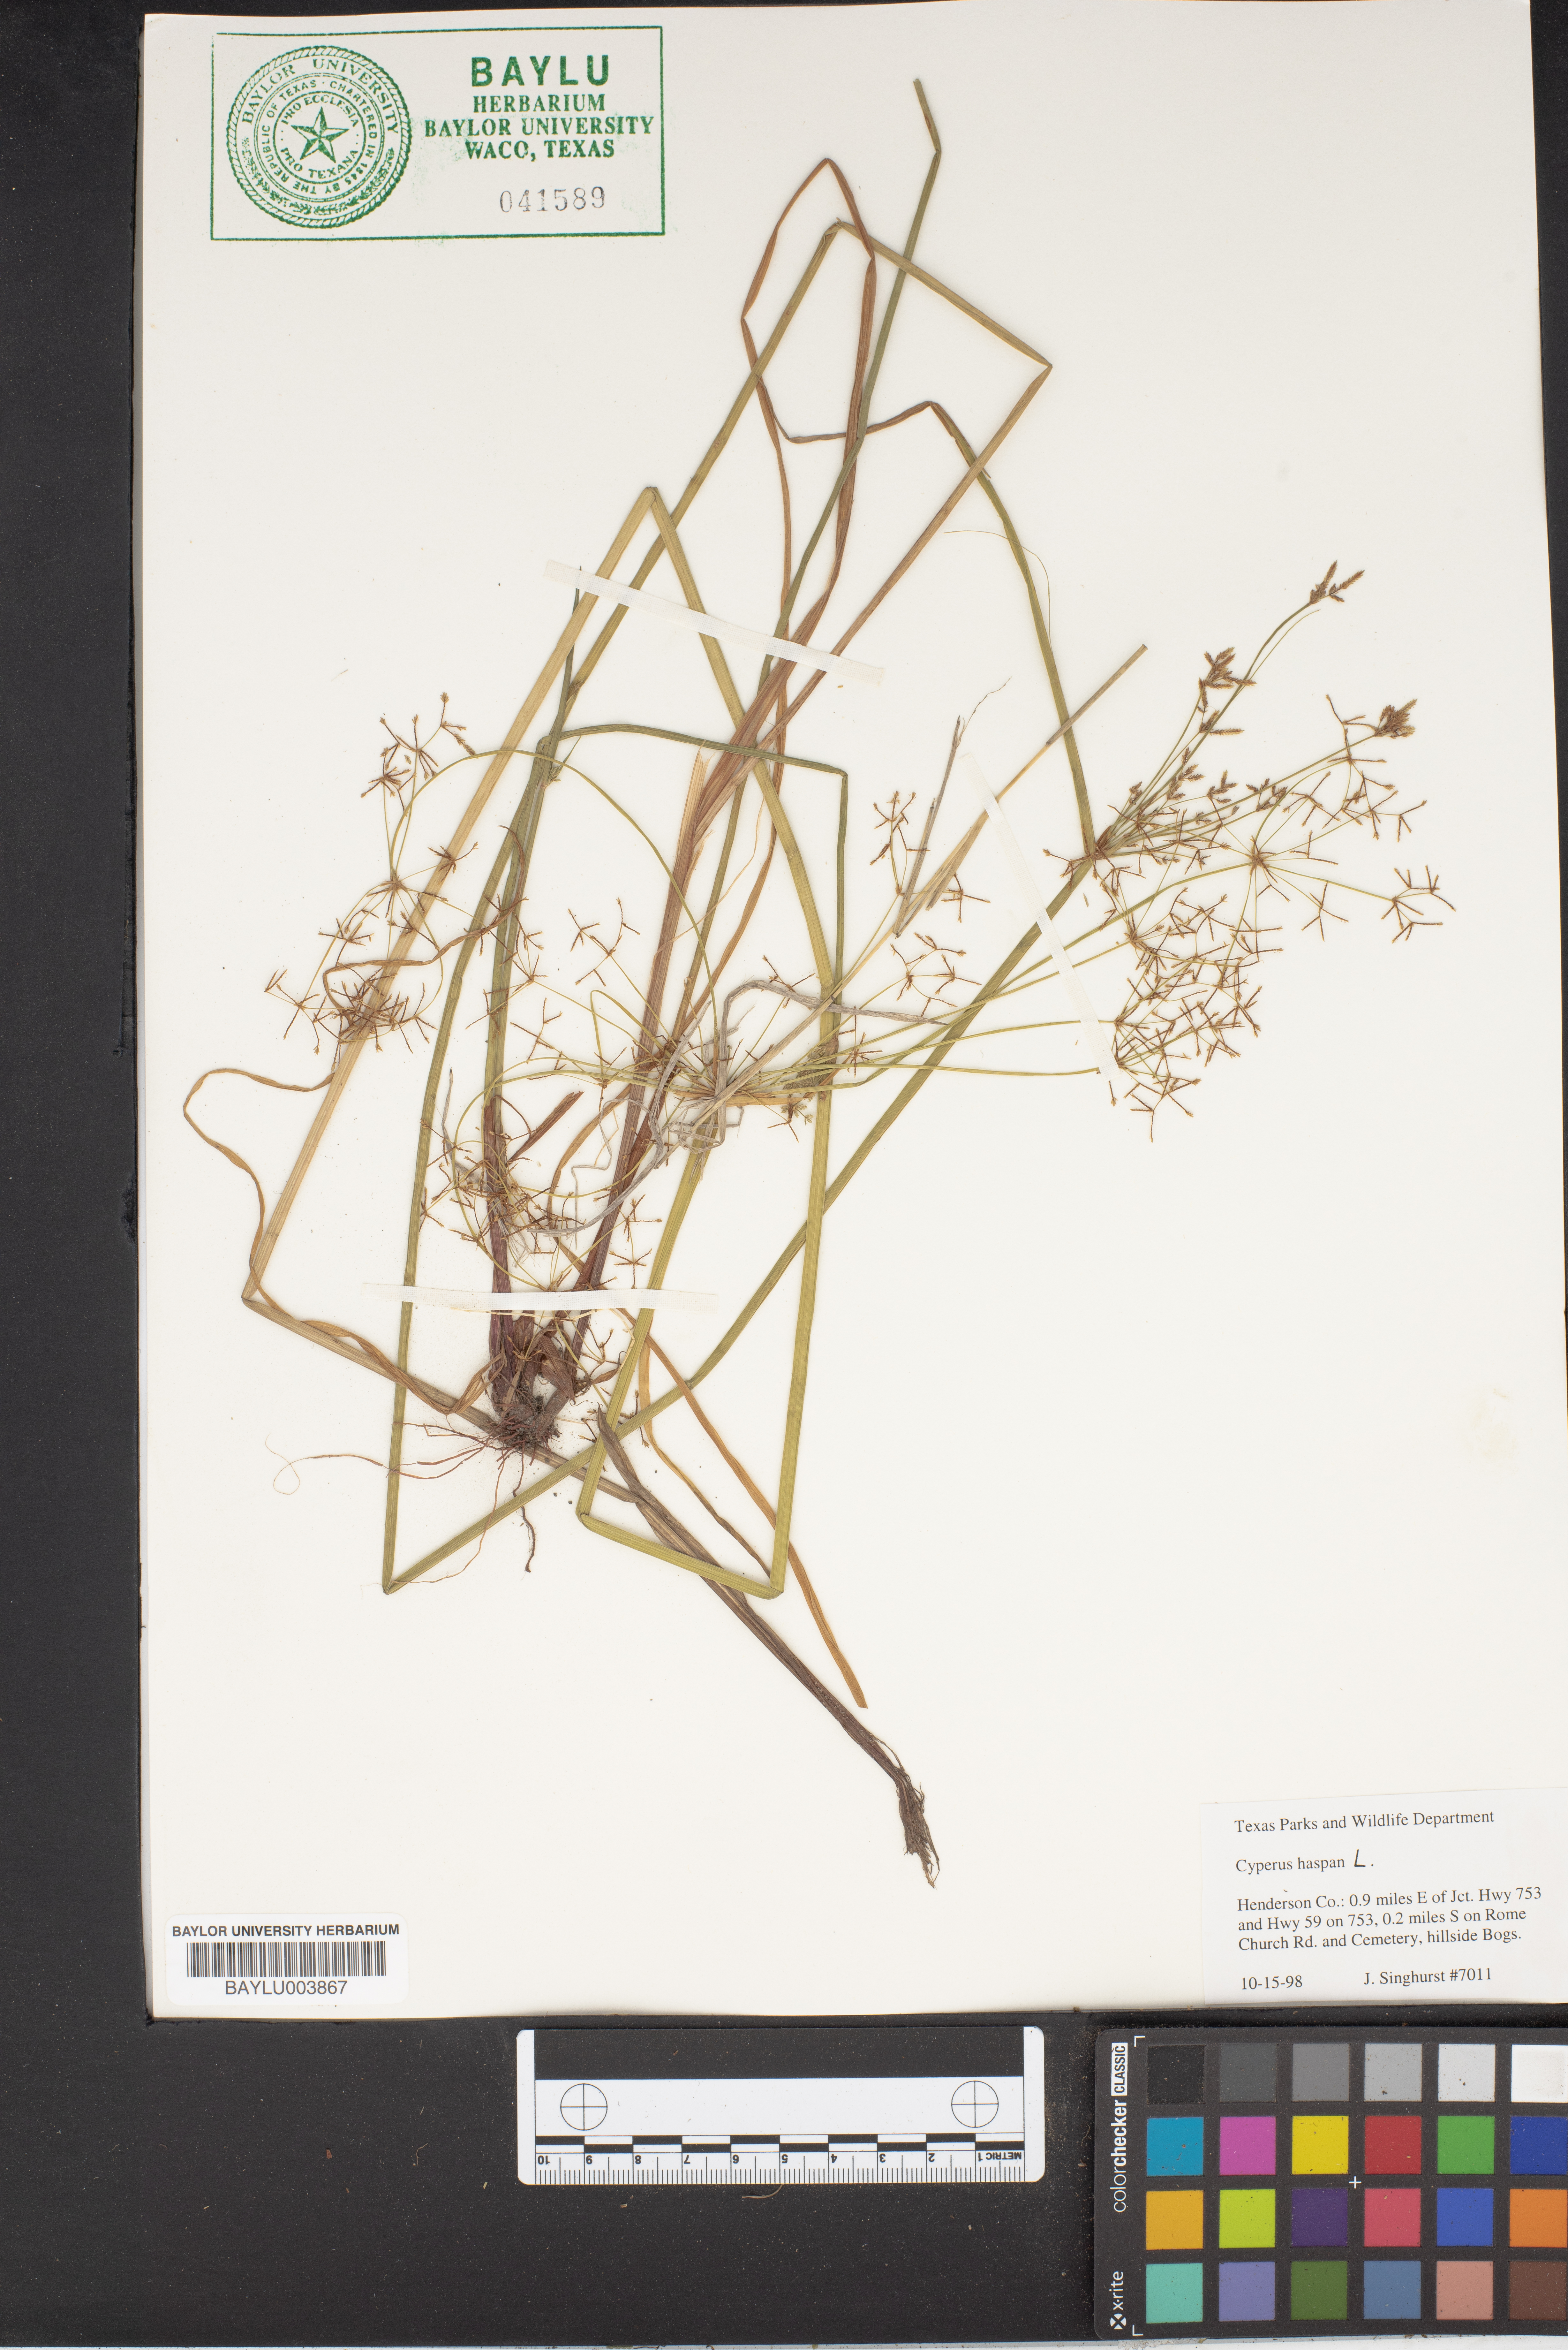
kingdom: Plantae
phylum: Tracheophyta
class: Liliopsida
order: Poales
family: Cyperaceae
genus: Cyperus
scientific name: Cyperus haspan
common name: Haspan flatsedge
